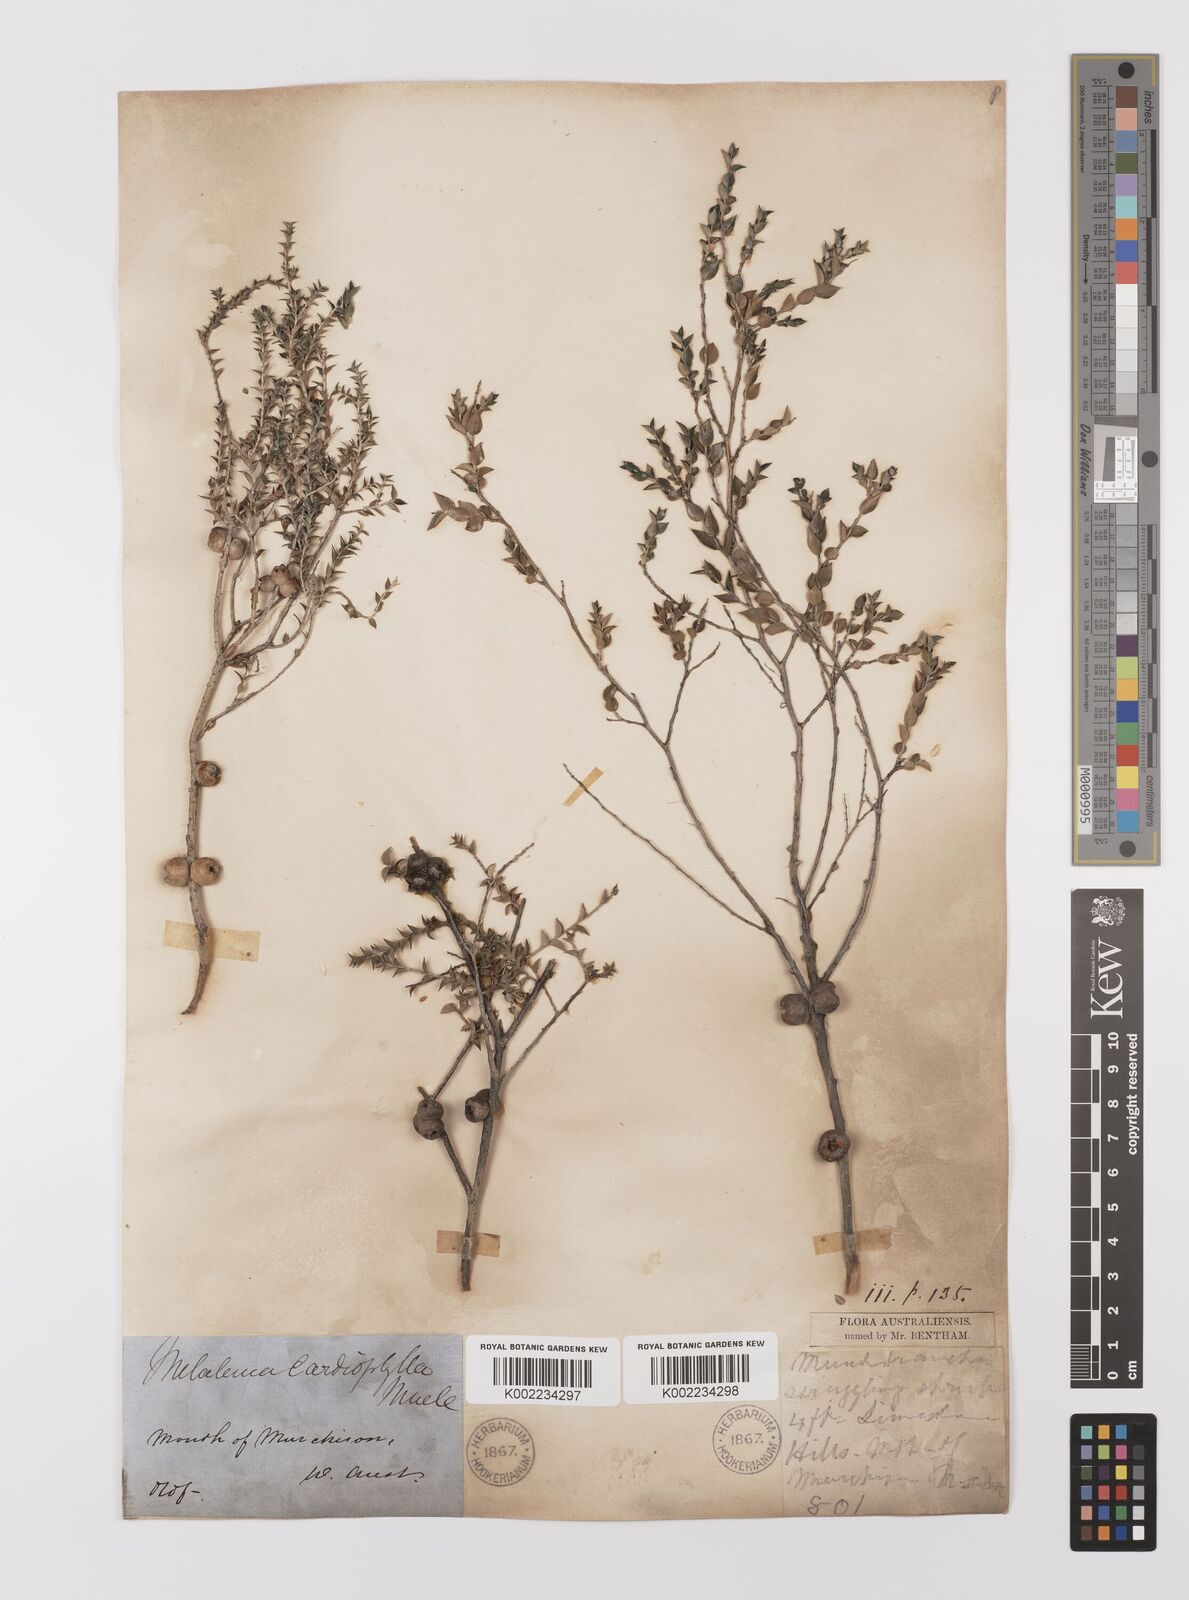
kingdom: Plantae
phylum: Tracheophyta
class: Magnoliopsida
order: Myrtales
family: Myrtaceae
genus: Melaleuca
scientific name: Melaleuca cardiophylla
